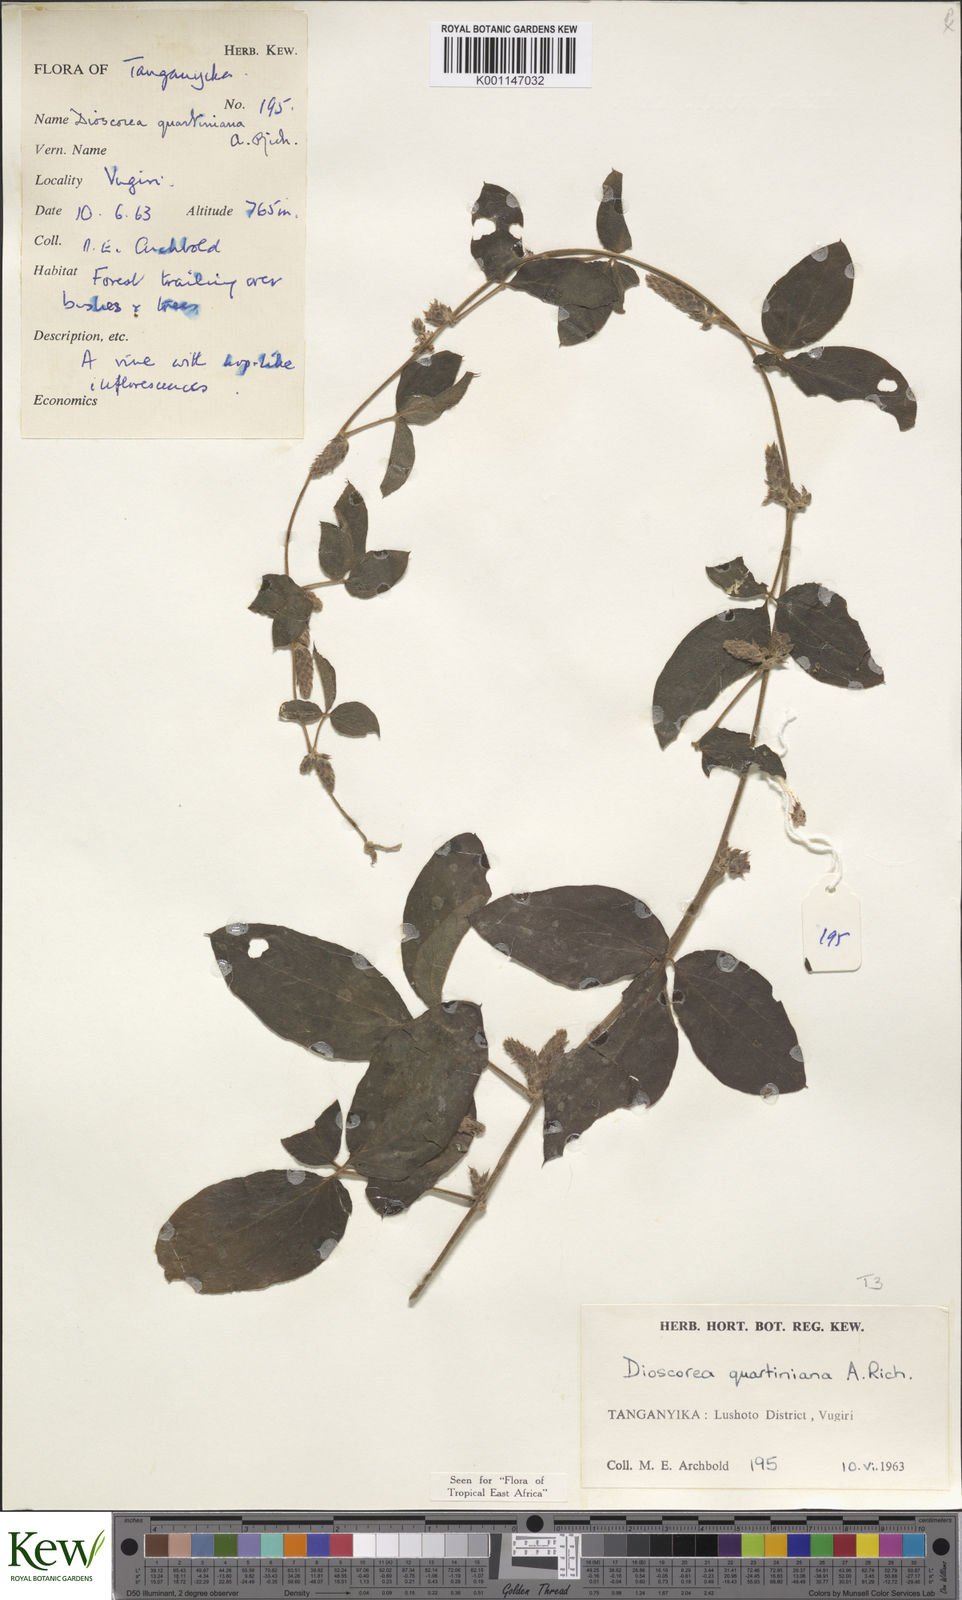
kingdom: Plantae
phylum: Tracheophyta
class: Liliopsida
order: Dioscoreales
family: Dioscoreaceae
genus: Dioscorea
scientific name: Dioscorea quartiniana
